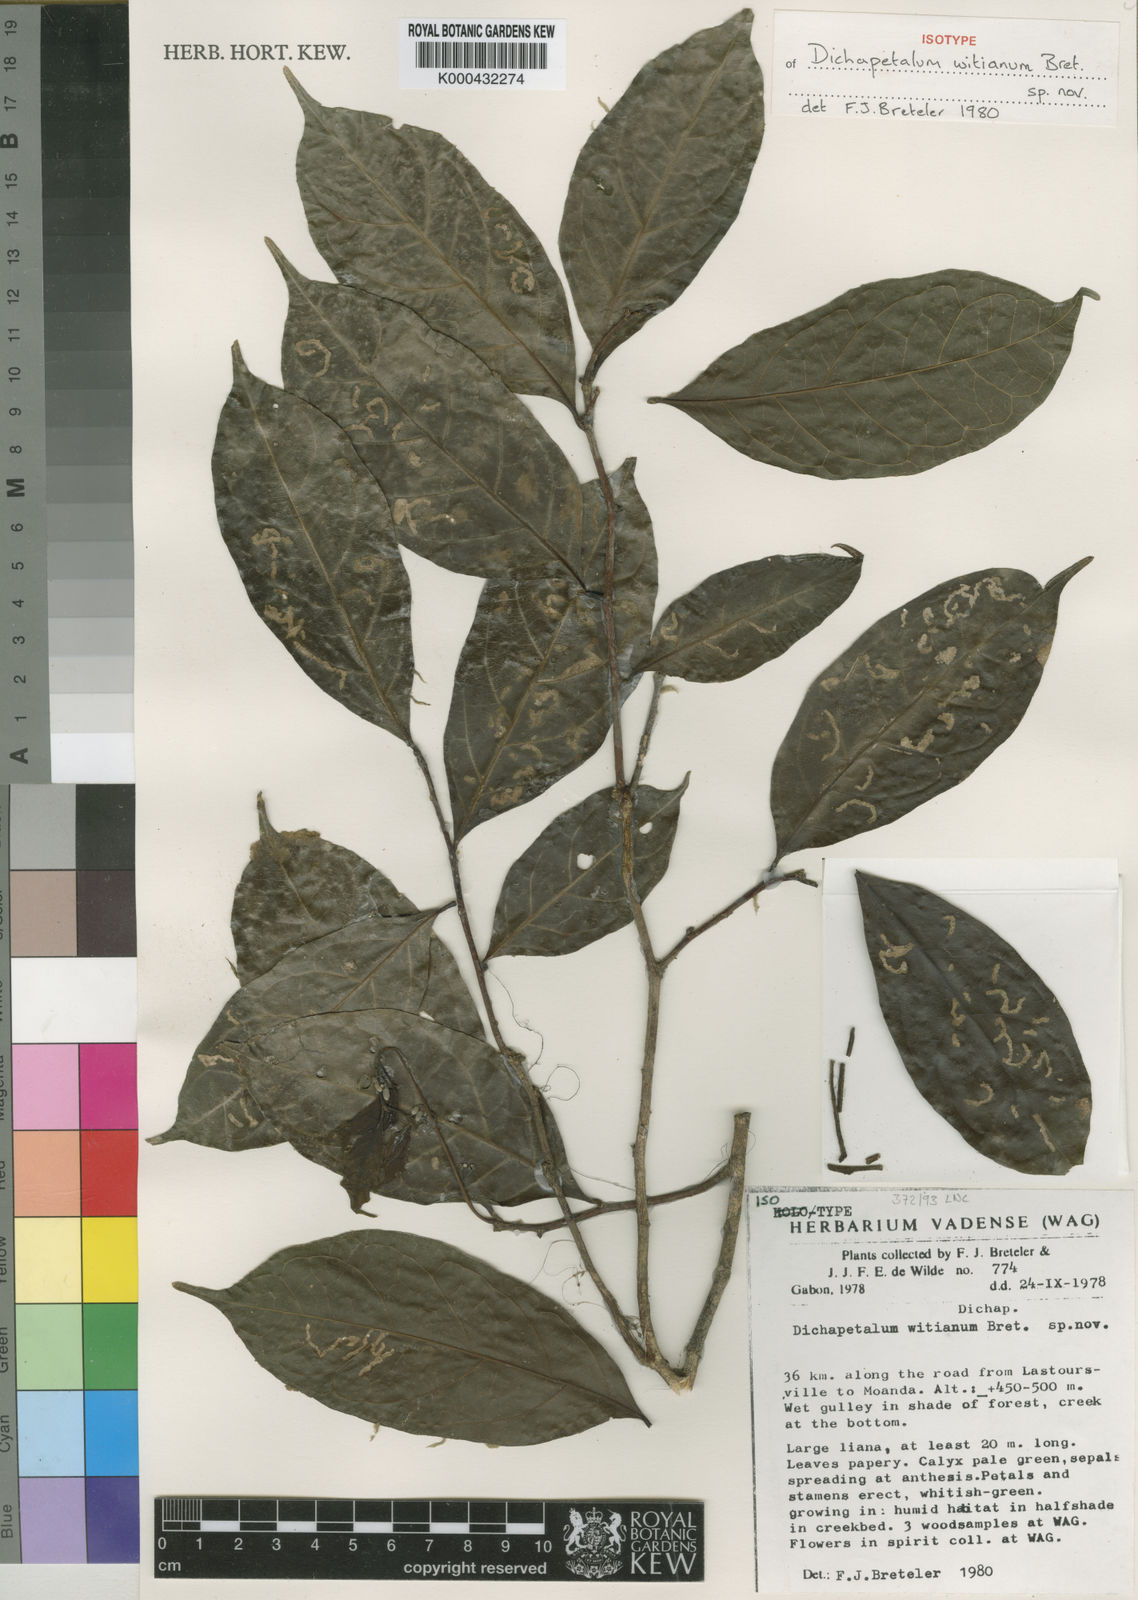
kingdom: Plantae
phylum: Tracheophyta
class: Magnoliopsida
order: Malpighiales
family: Dichapetalaceae
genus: Dichapetalum
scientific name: Dichapetalum witianum
